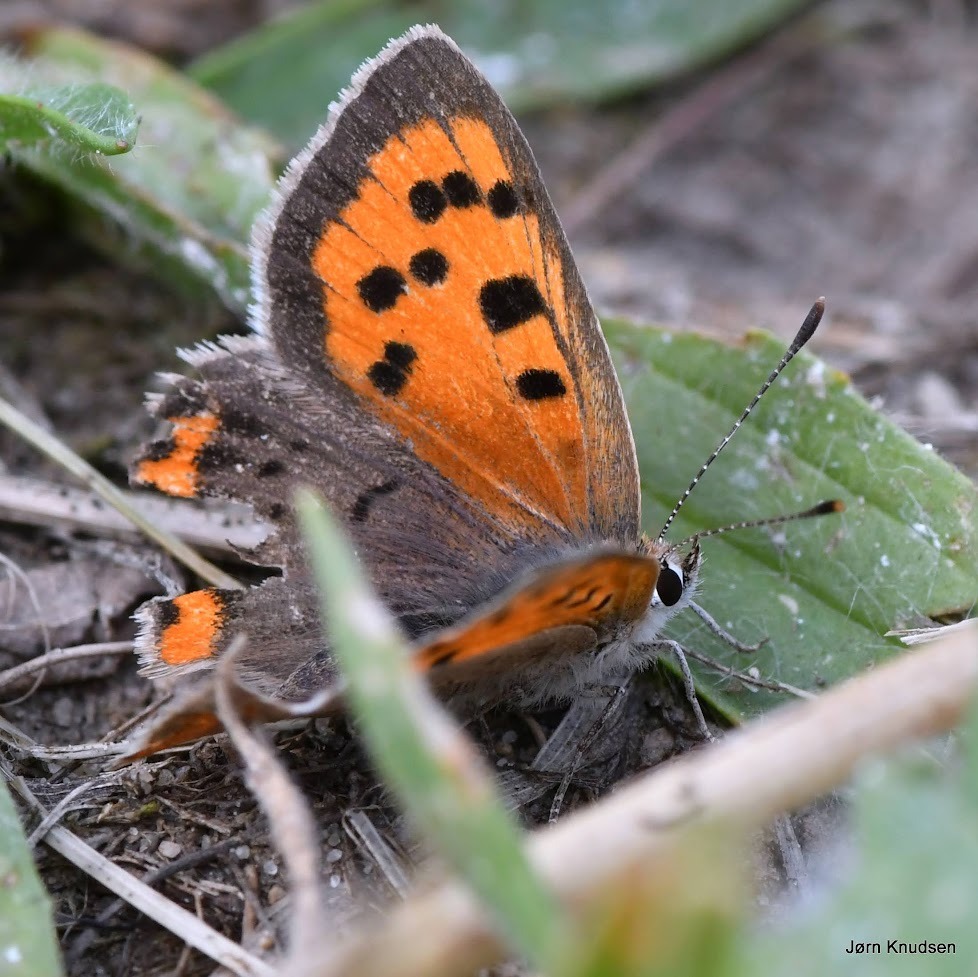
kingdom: Animalia
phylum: Arthropoda
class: Insecta
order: Lepidoptera
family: Lycaenidae
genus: Lycaena
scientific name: Lycaena phlaeas
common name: Lille ildfugl
